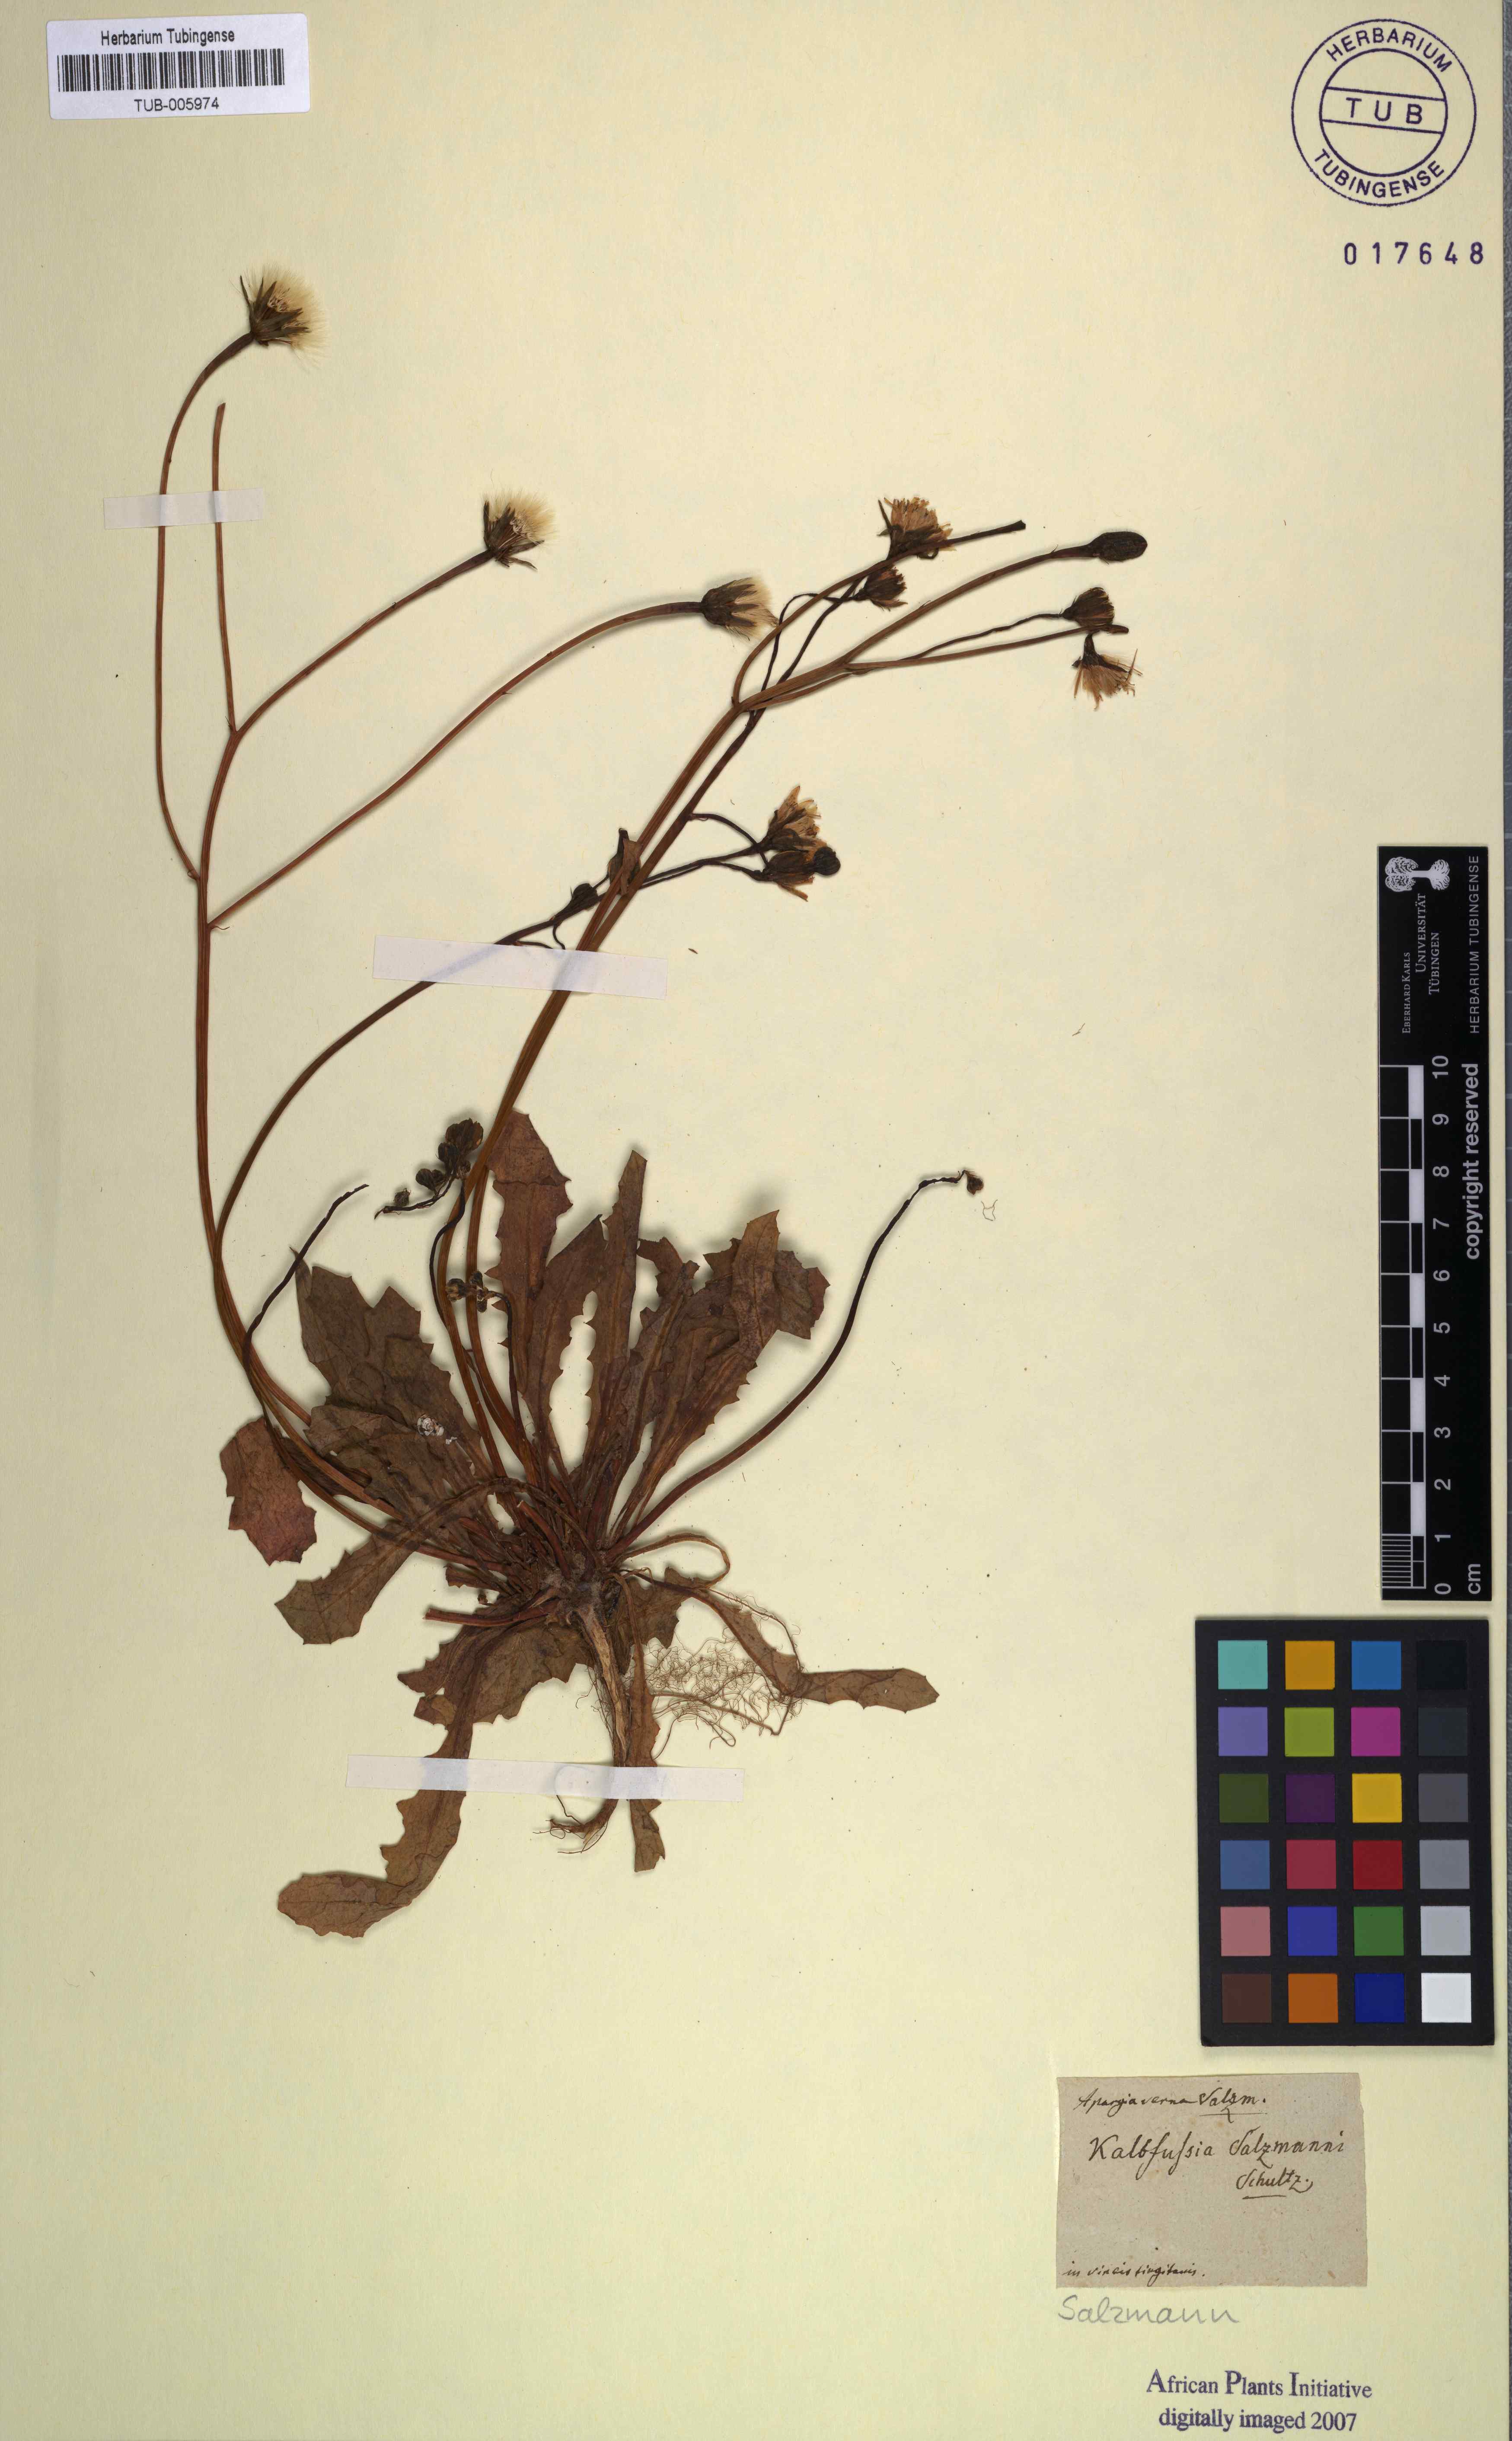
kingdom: Plantae
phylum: Tracheophyta
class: Magnoliopsida
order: Asterales
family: Asteraceae
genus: Scorzoneroides
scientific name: Scorzoneroides salzmannii
